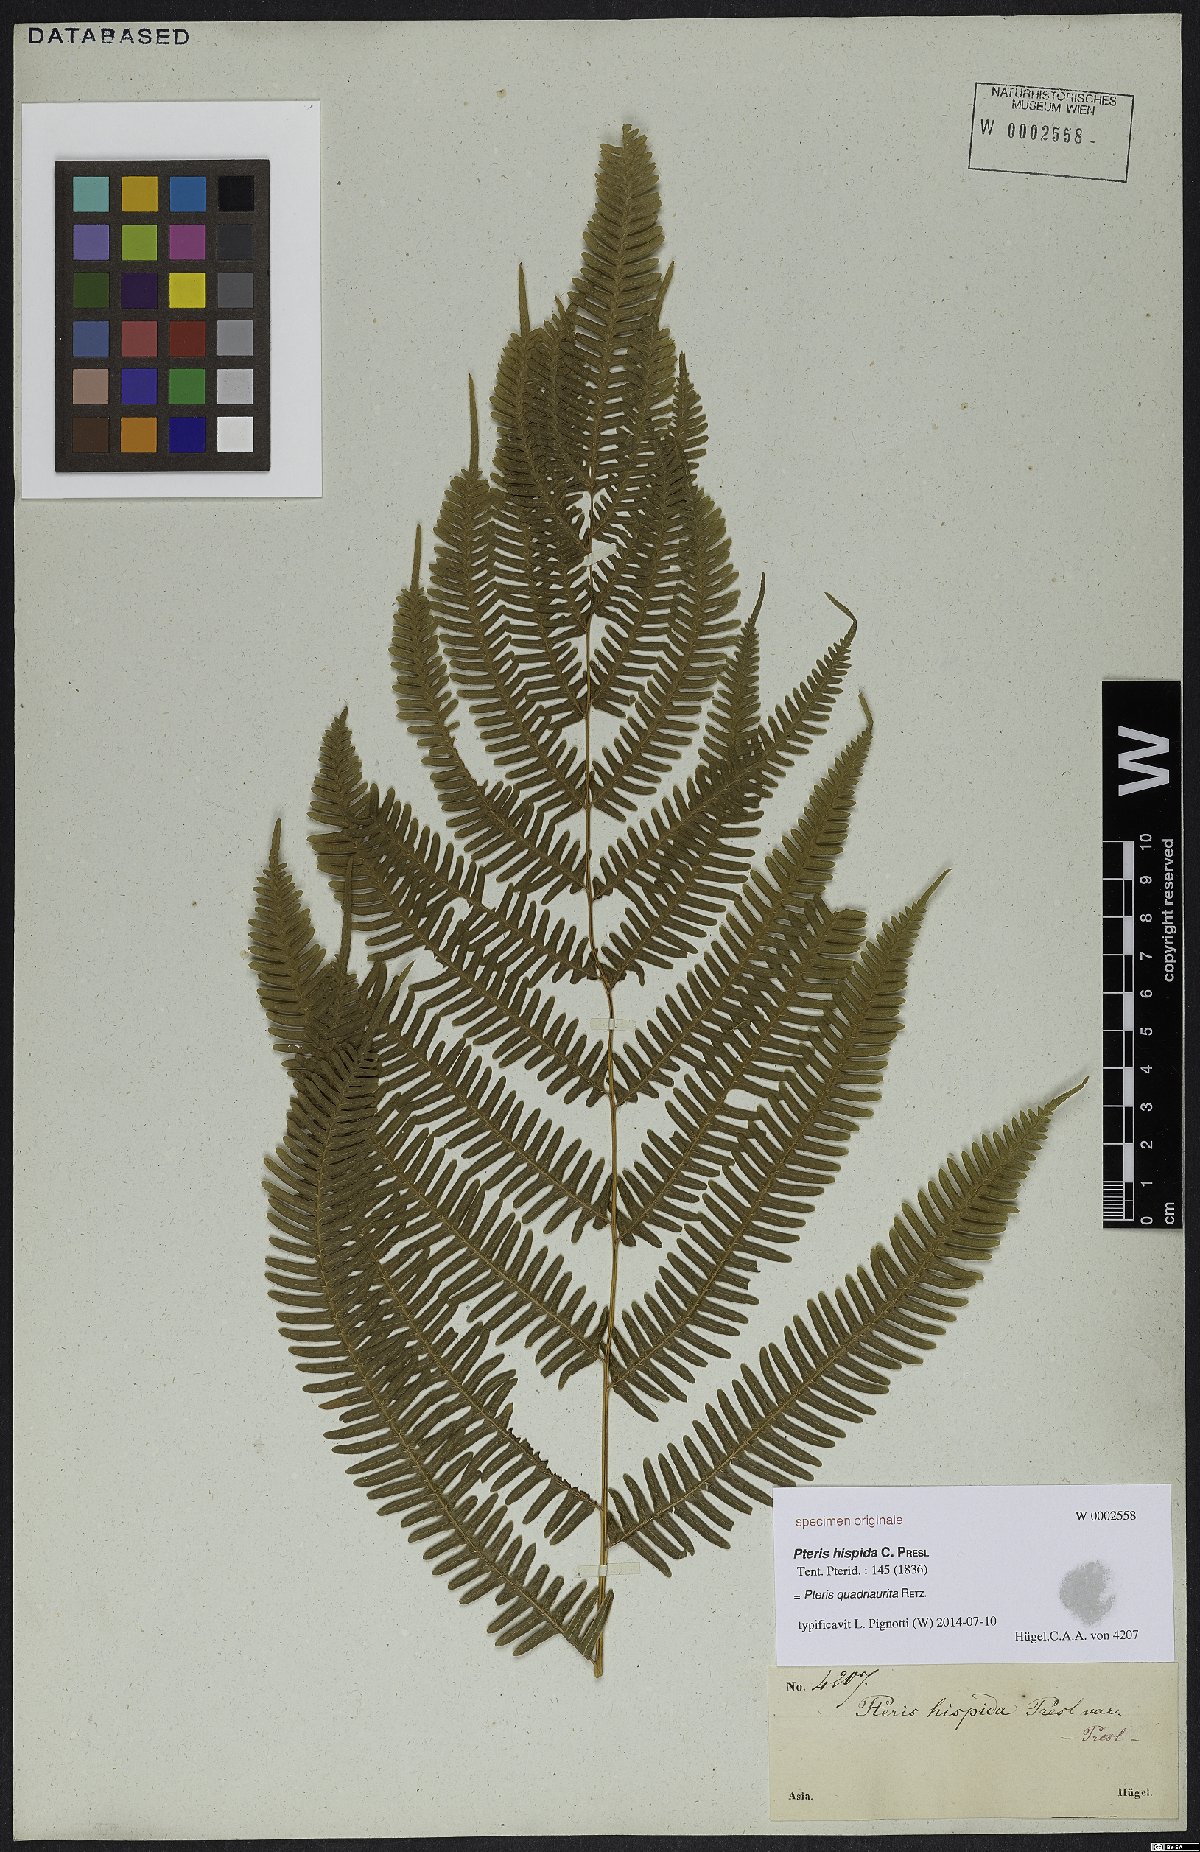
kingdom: Plantae
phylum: Tracheophyta
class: Polypodiopsida
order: Polypodiales
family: Pteridaceae
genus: Pteris
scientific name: Pteris quadriaurita
